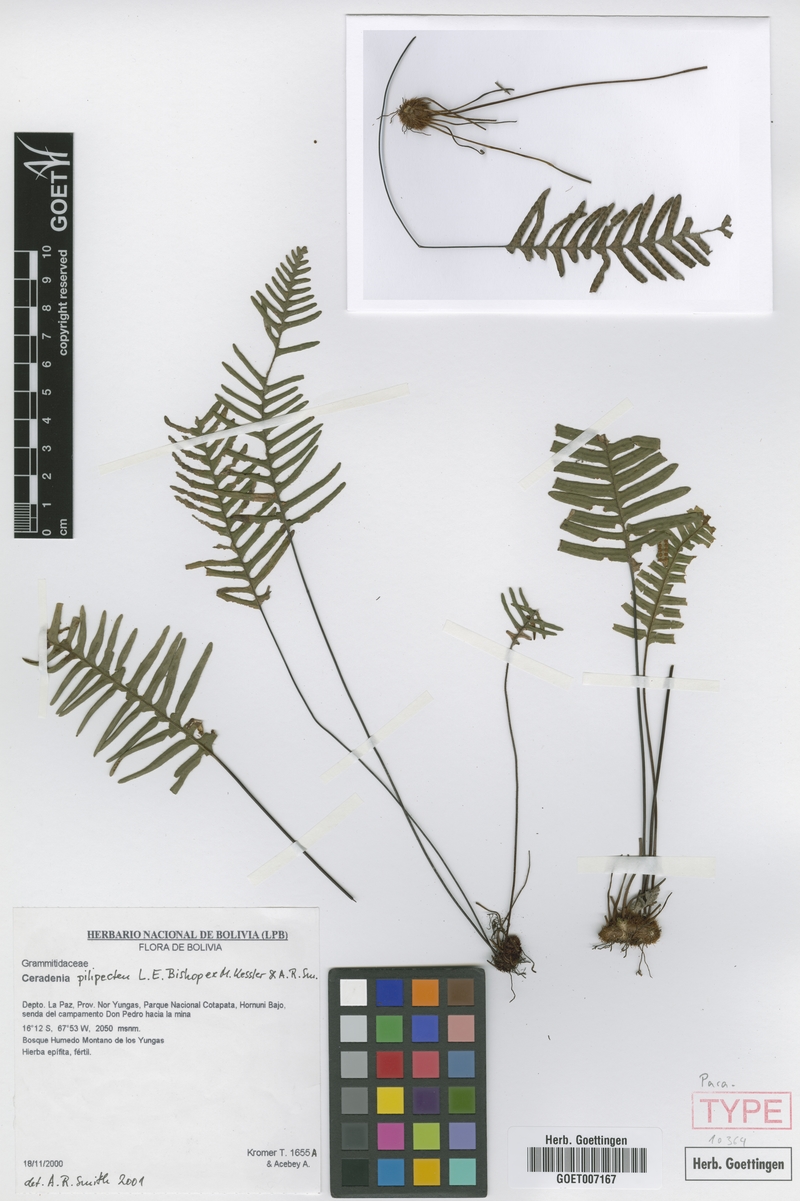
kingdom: Plantae
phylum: Tracheophyta
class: Polypodiopsida
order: Polypodiales
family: Polypodiaceae
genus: Ceradenia
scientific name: Ceradenia pilipecten
